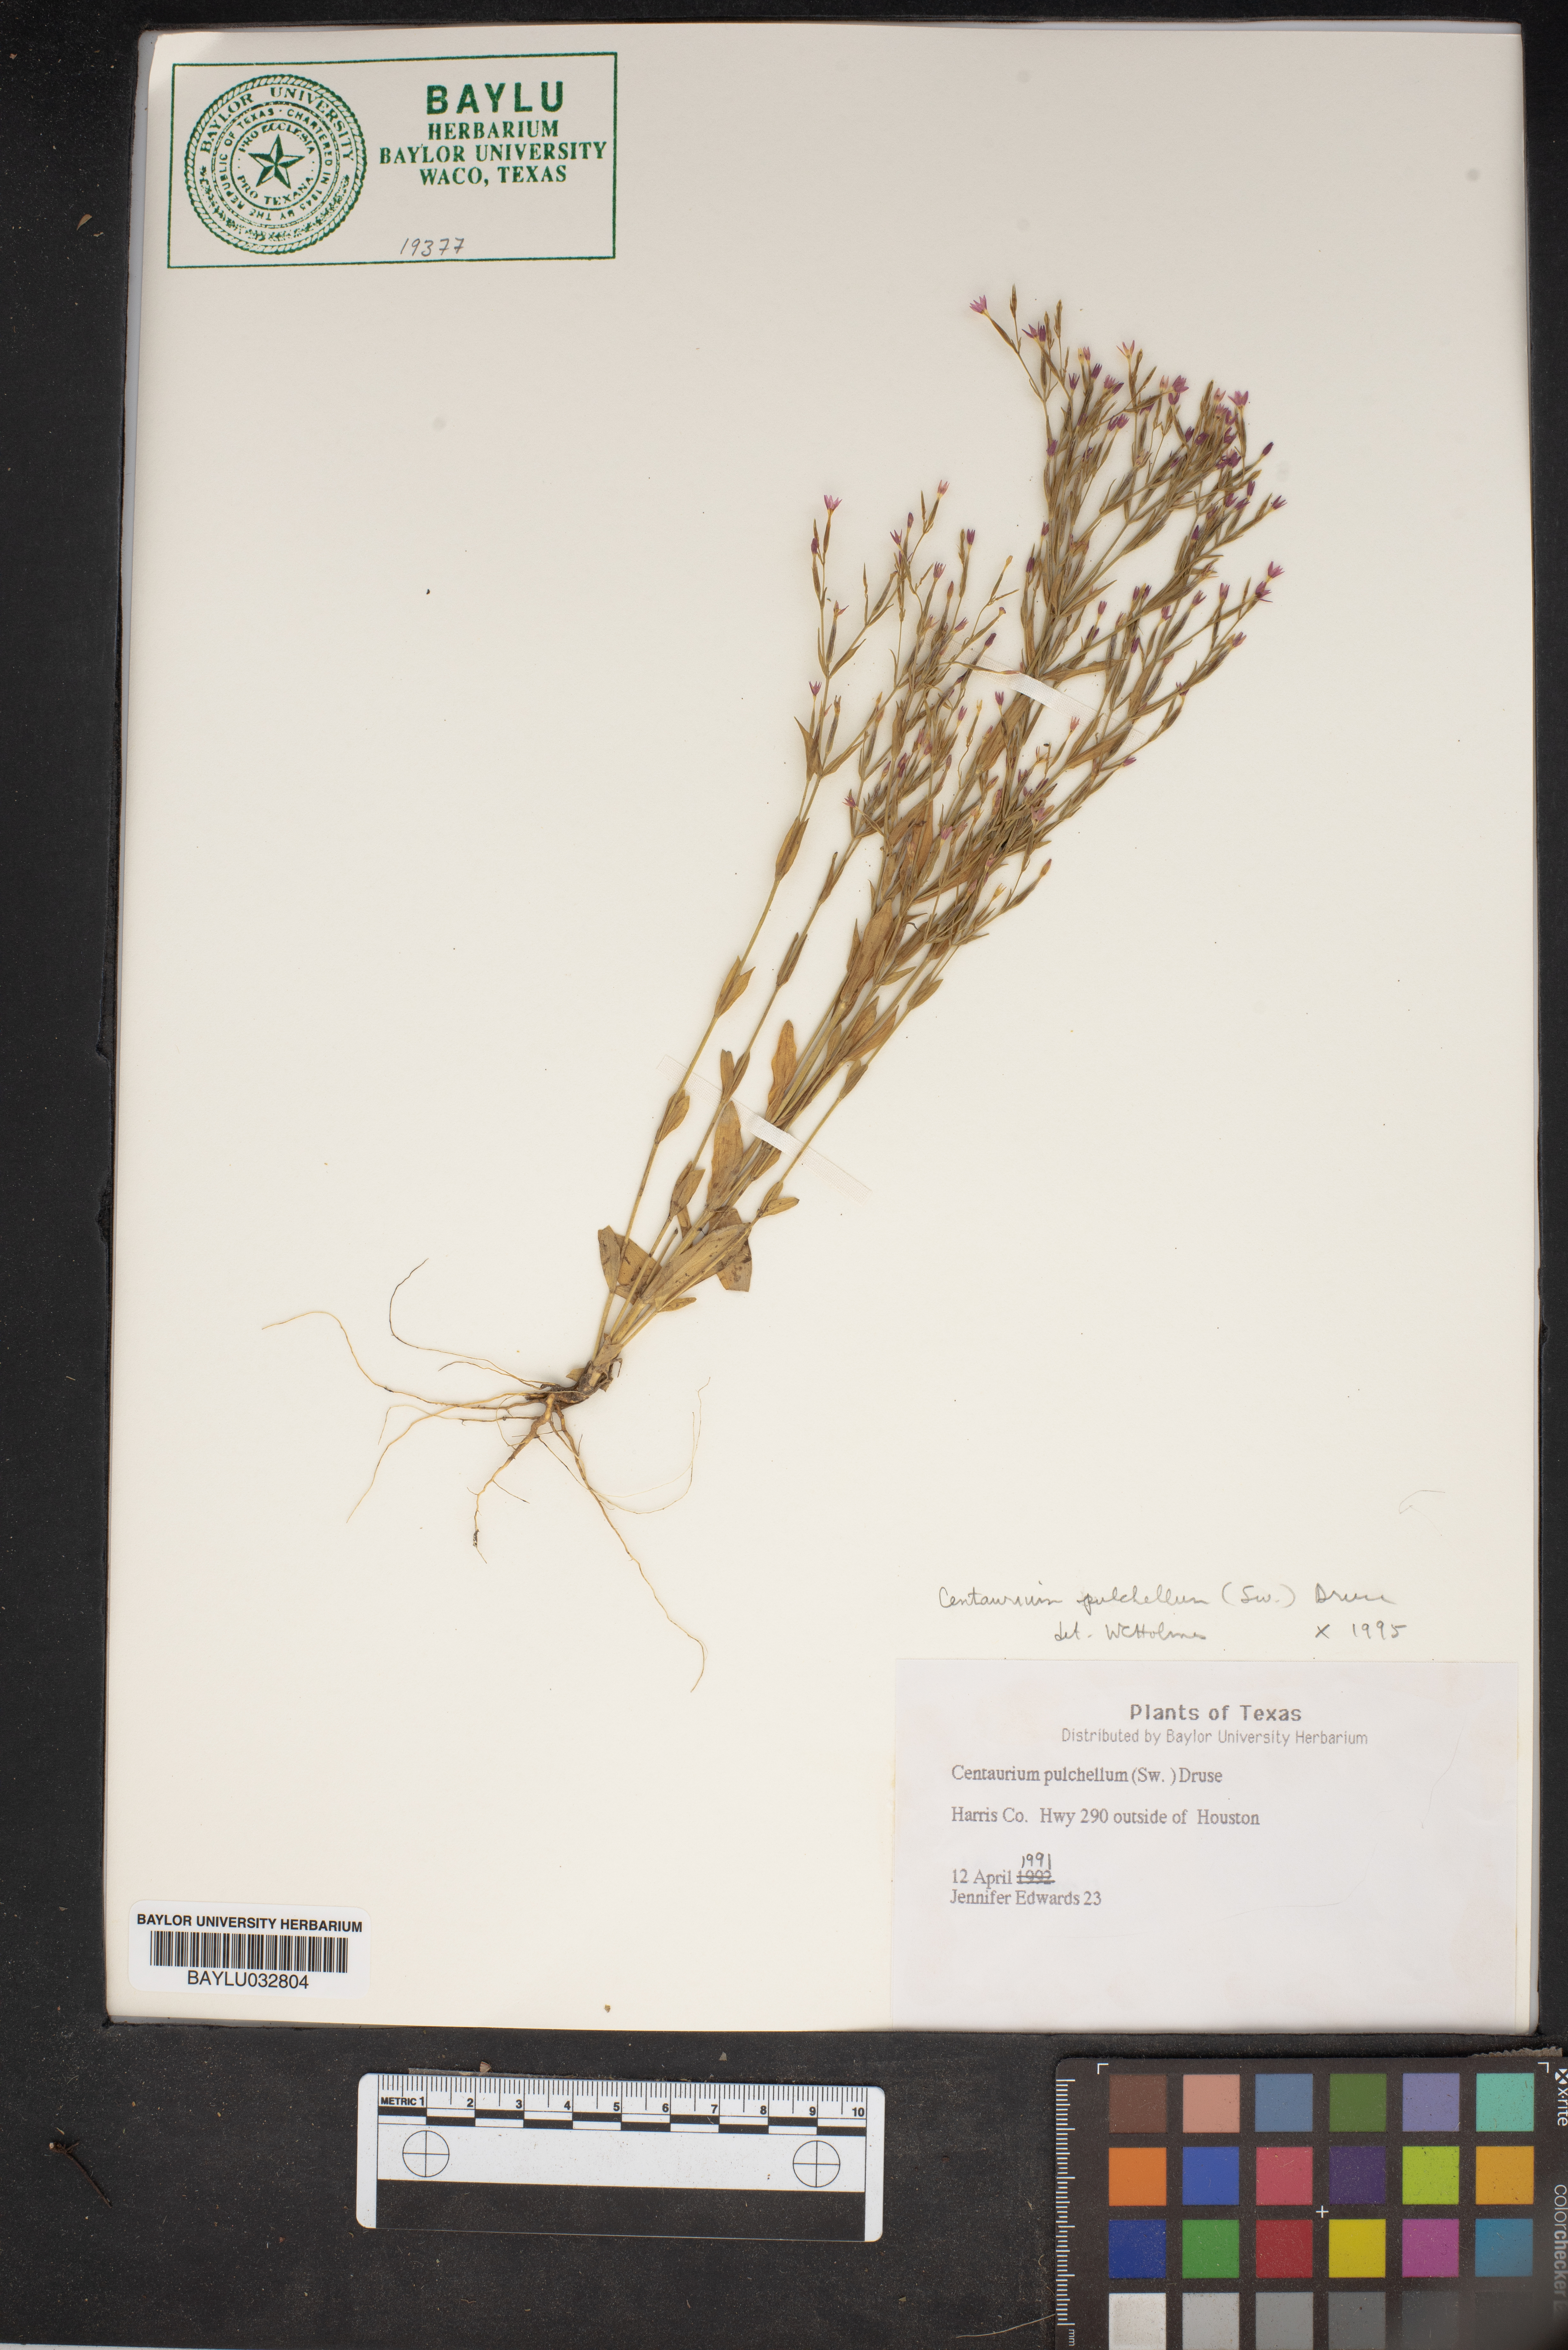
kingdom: Plantae
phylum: Tracheophyta
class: Magnoliopsida
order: Gentianales
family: Gentianaceae
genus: Centaurium
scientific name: Centaurium pulchellum
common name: Lesser centaury
